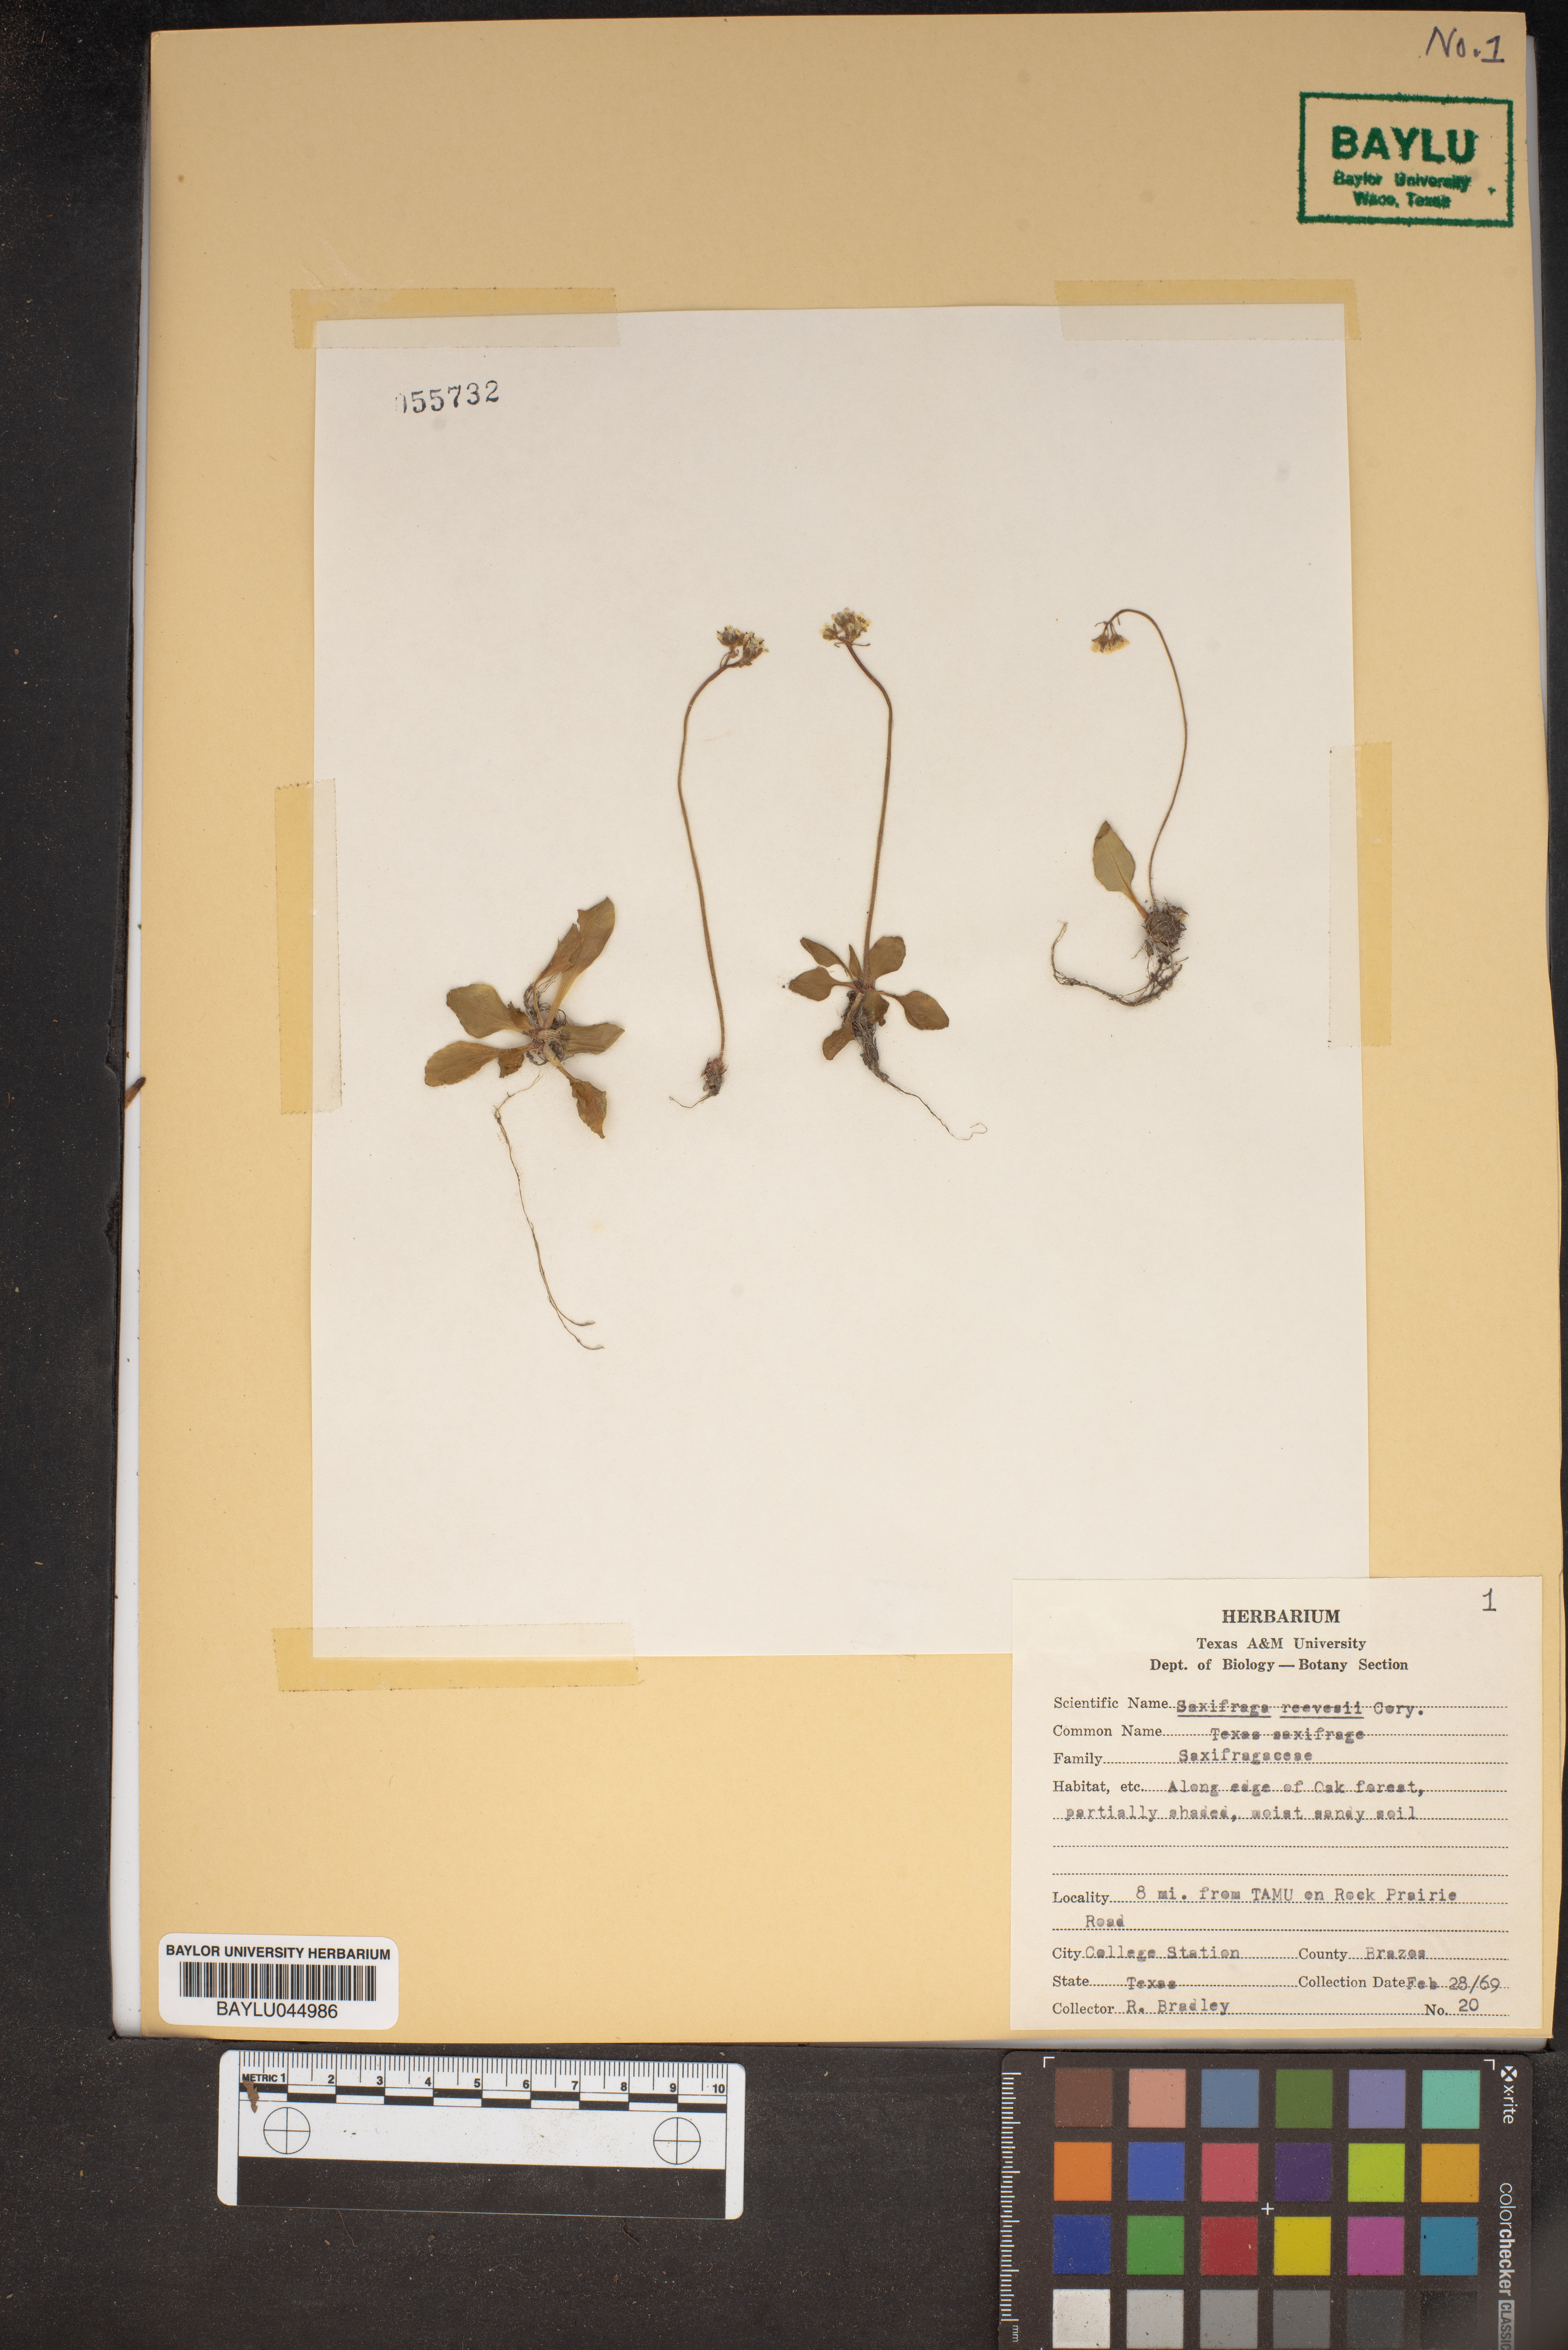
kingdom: Plantae
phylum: Tracheophyta
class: Magnoliopsida
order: Saxifragales
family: Saxifragaceae
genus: Micranthes
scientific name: Micranthes texana
